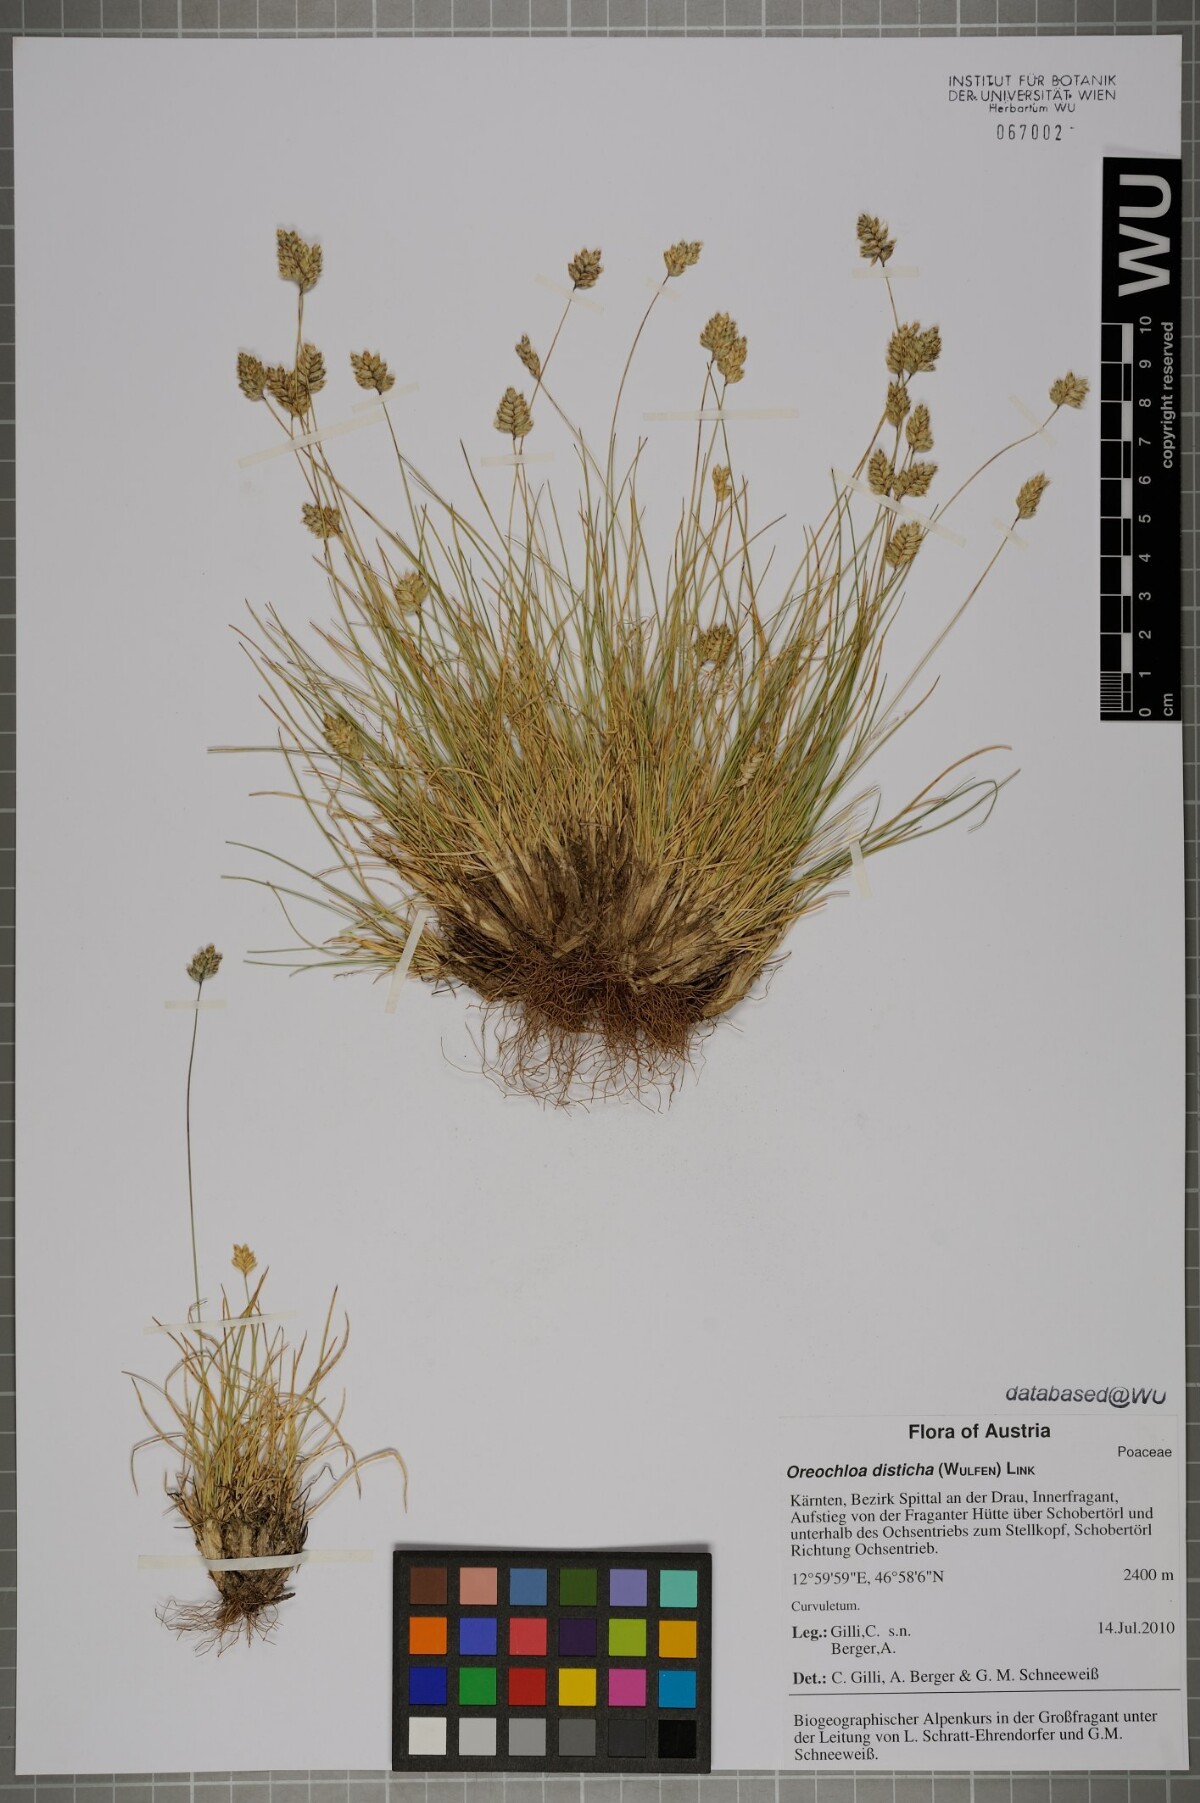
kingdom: Plantae
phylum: Tracheophyta
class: Liliopsida
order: Poales
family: Poaceae
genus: Oreochloa
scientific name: Oreochloa disticha
